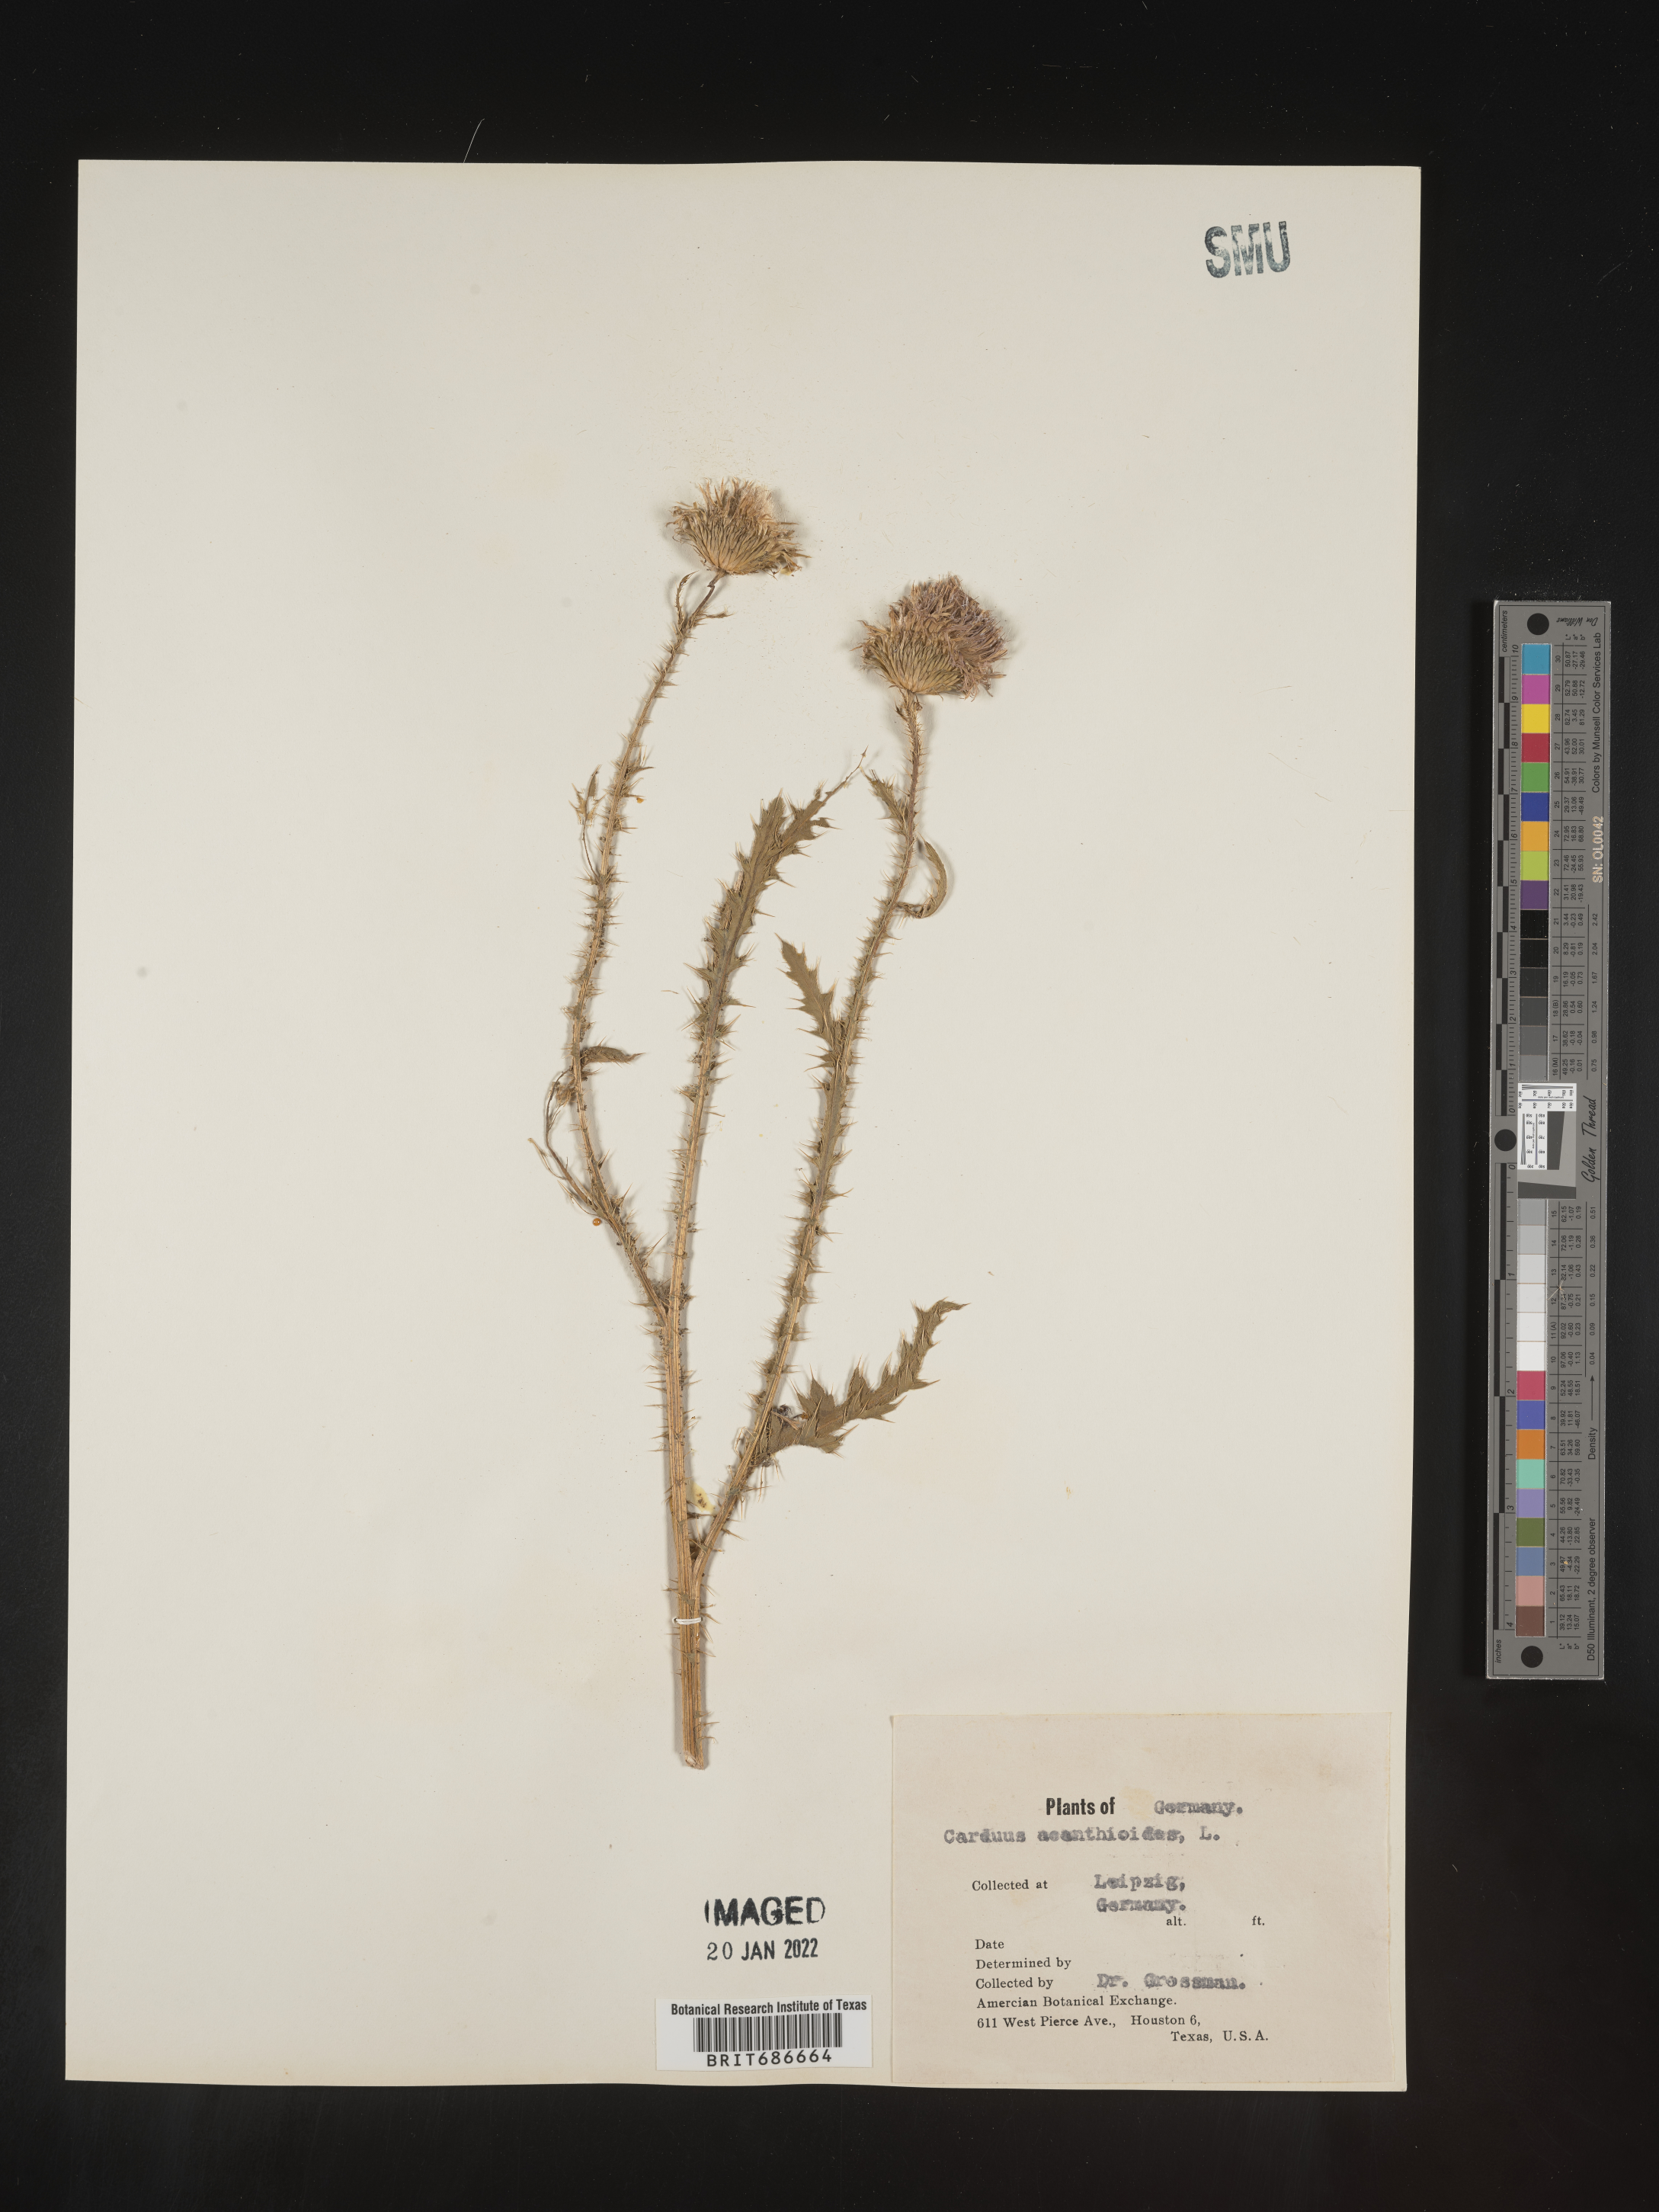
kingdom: Plantae
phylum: Tracheophyta
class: Magnoliopsida
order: Asterales
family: Asteraceae
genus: Carduus
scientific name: Carduus acanthoides
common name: Plumeless thistle
